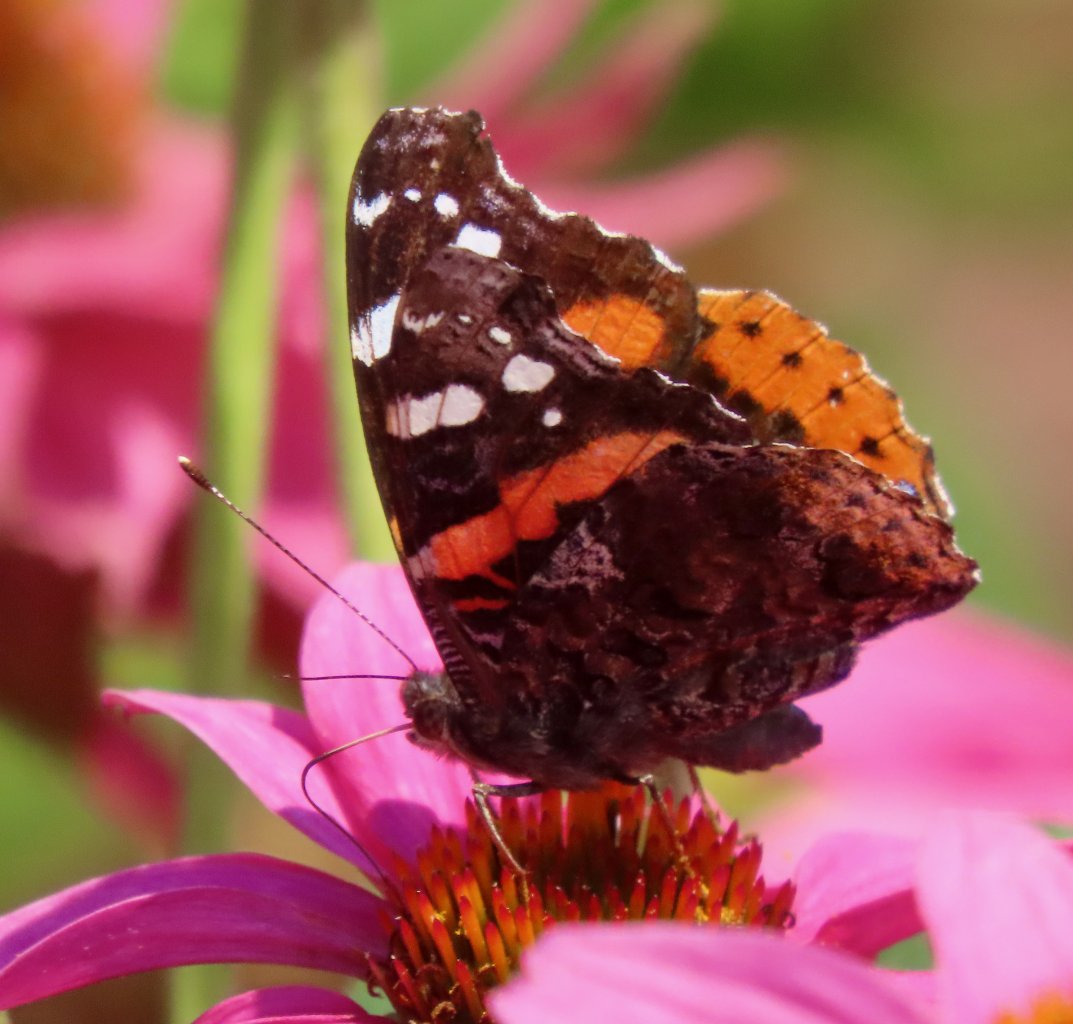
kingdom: Animalia
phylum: Arthropoda
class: Insecta
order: Lepidoptera
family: Nymphalidae
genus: Vanessa
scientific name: Vanessa atalanta
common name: Red Admiral
